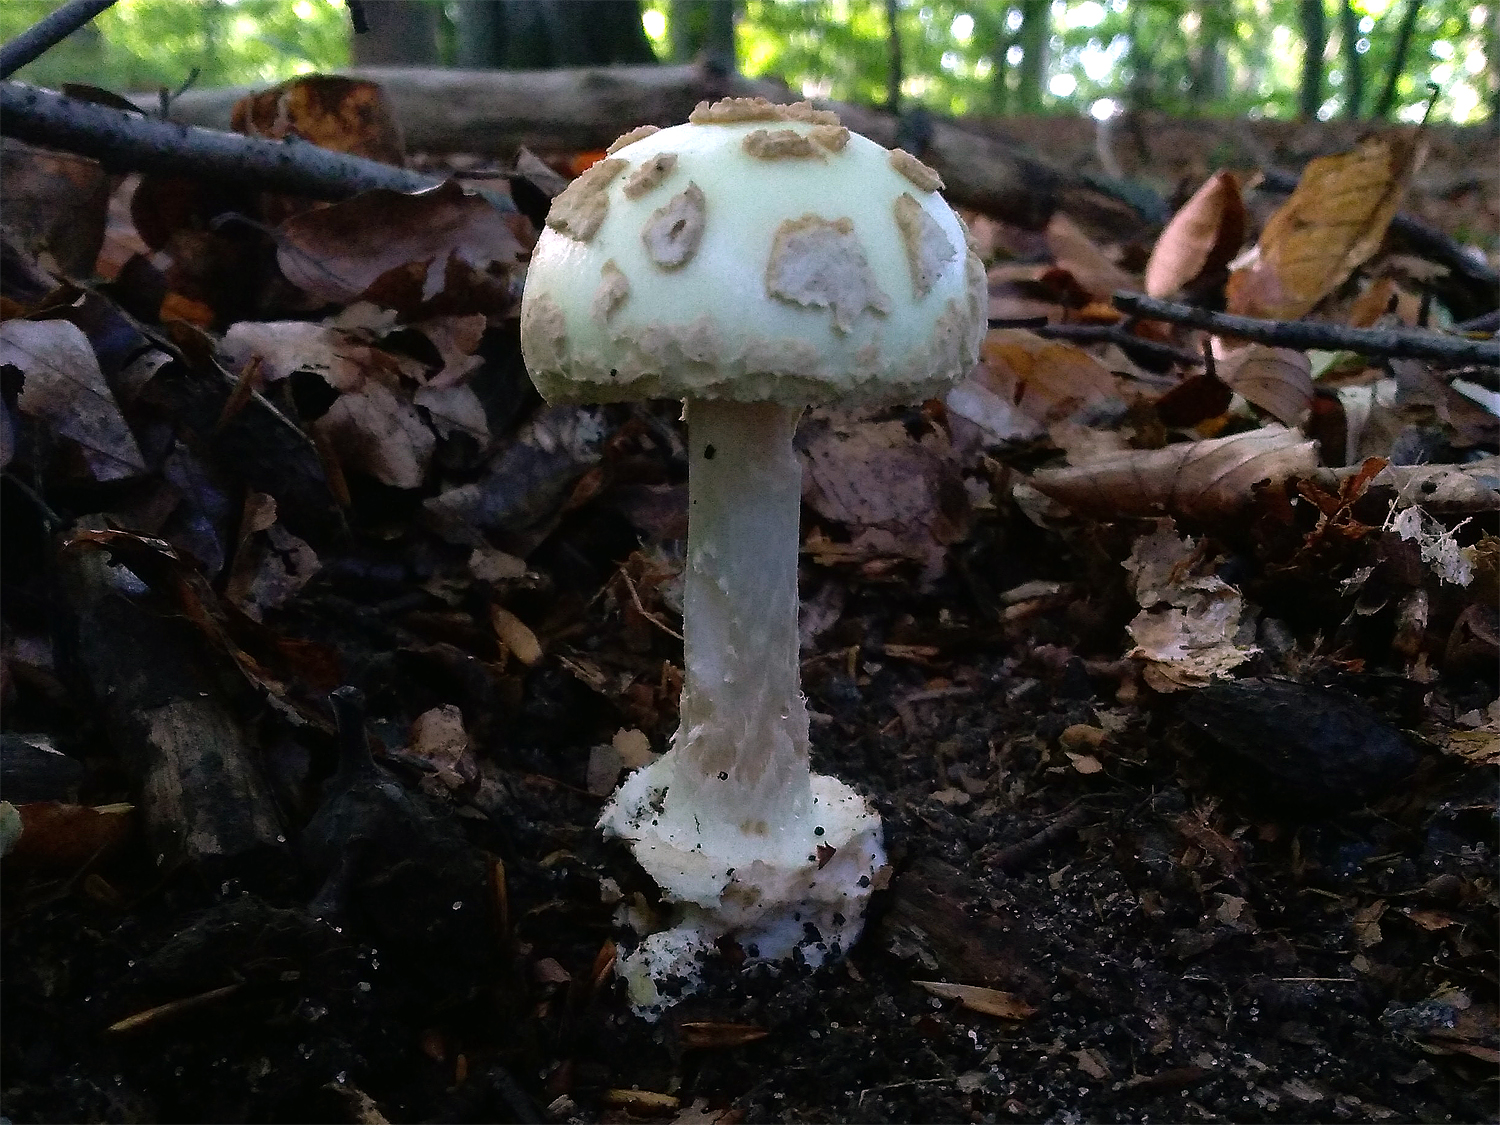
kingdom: Fungi
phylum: Basidiomycota
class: Agaricomycetes
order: Agaricales
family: Amanitaceae
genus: Amanita
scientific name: Amanita citrina
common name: kugleknoldet fluesvamp
